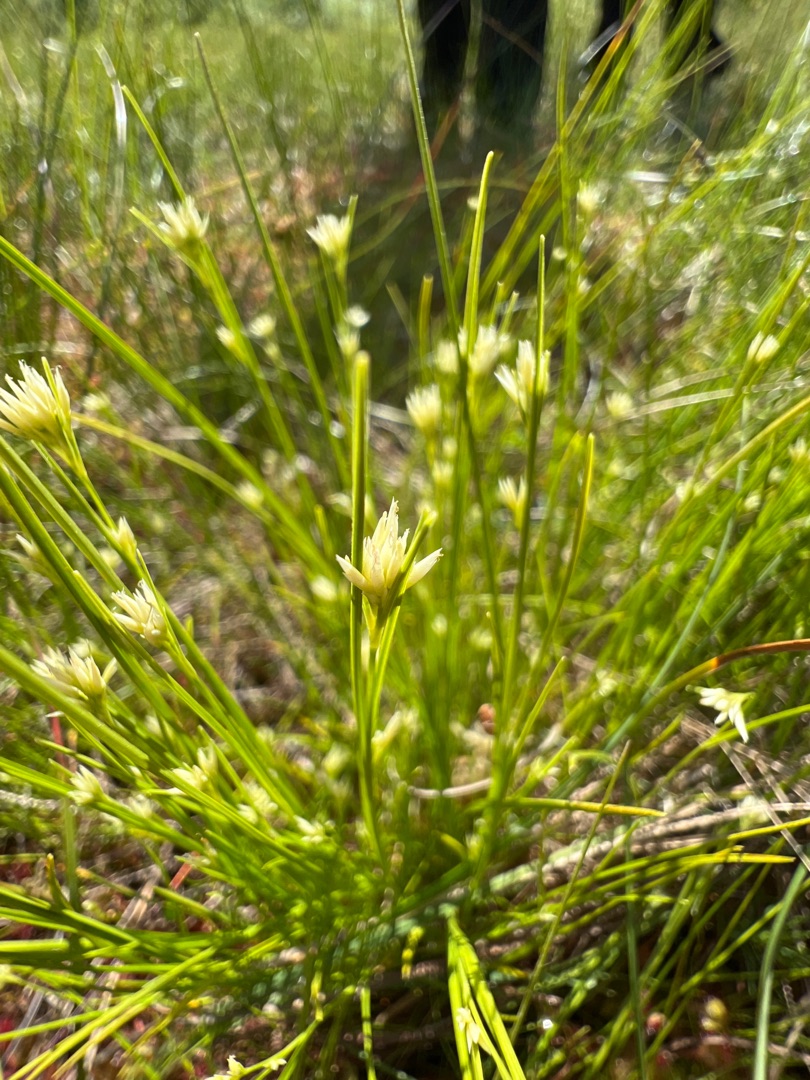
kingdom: Plantae
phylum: Tracheophyta
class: Liliopsida
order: Poales
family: Cyperaceae
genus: Rhynchospora
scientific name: Rhynchospora alba
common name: Hvid næbfrø
